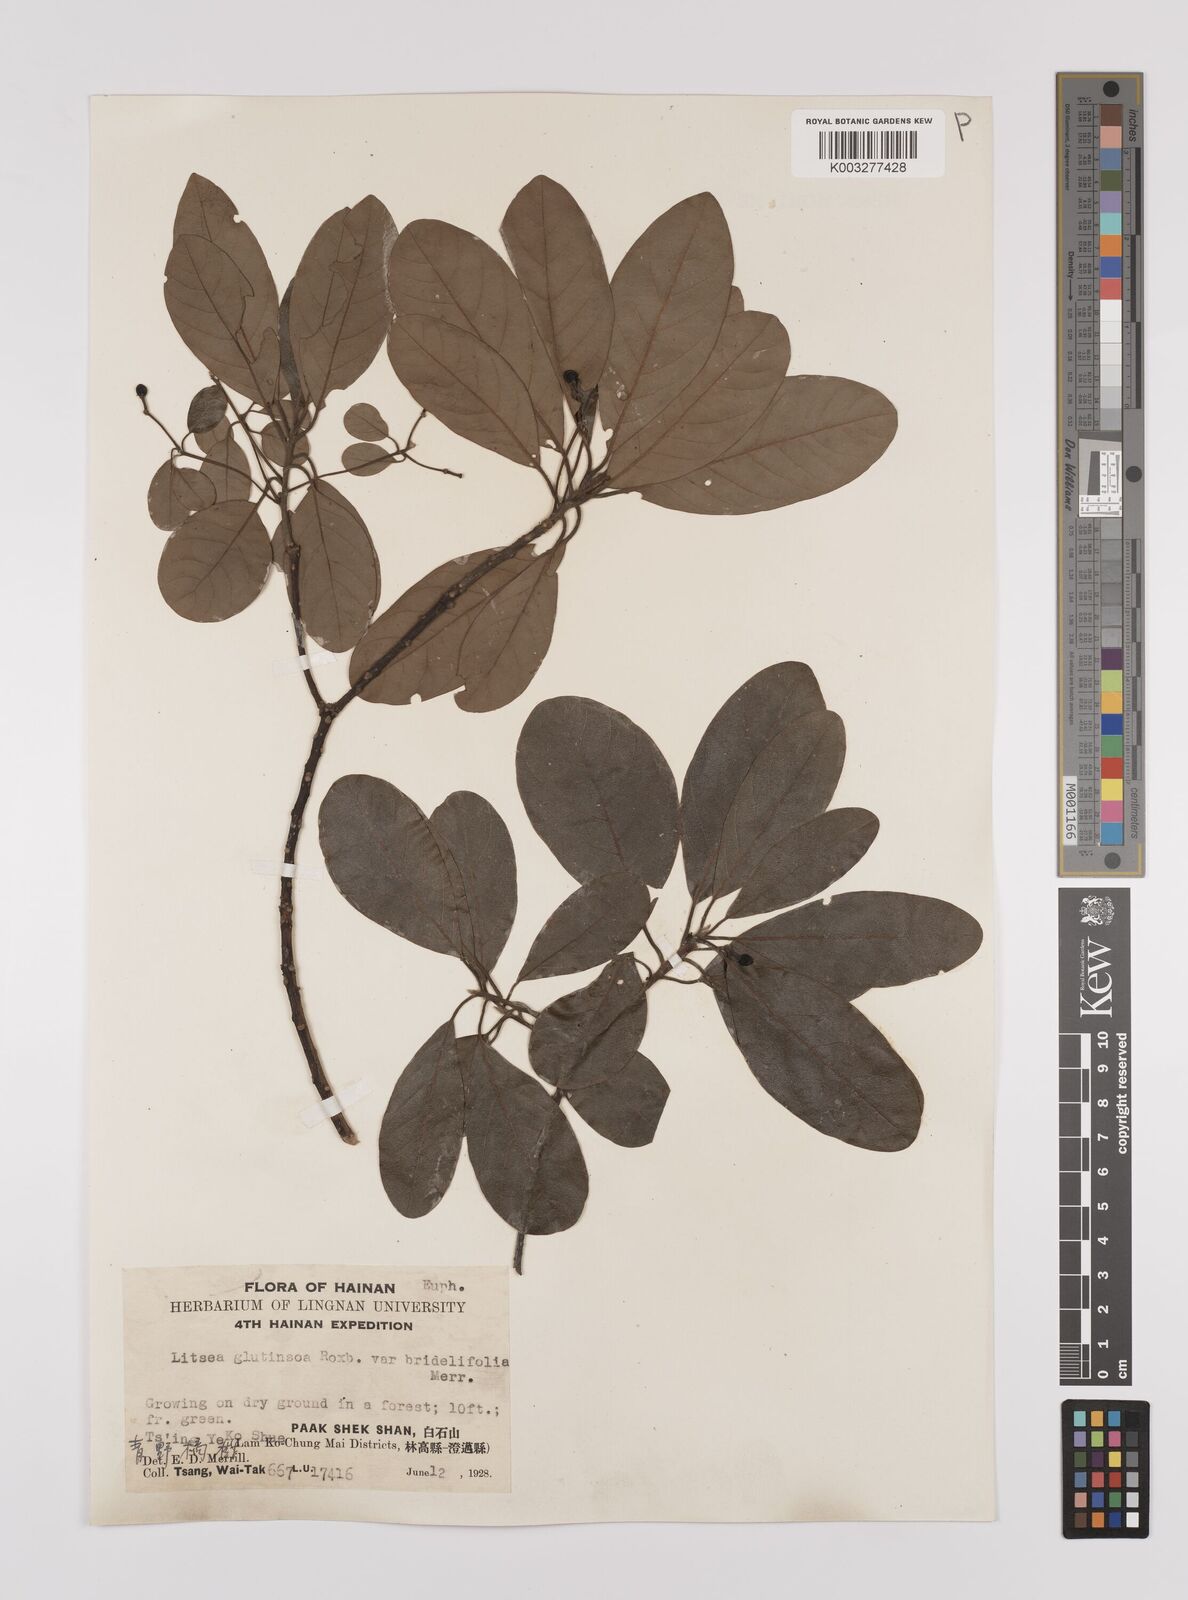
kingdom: Plantae
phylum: Tracheophyta
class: Magnoliopsida
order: Laurales
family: Lauraceae
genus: Litsea
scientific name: Litsea glutinosa
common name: Indian-laurel
